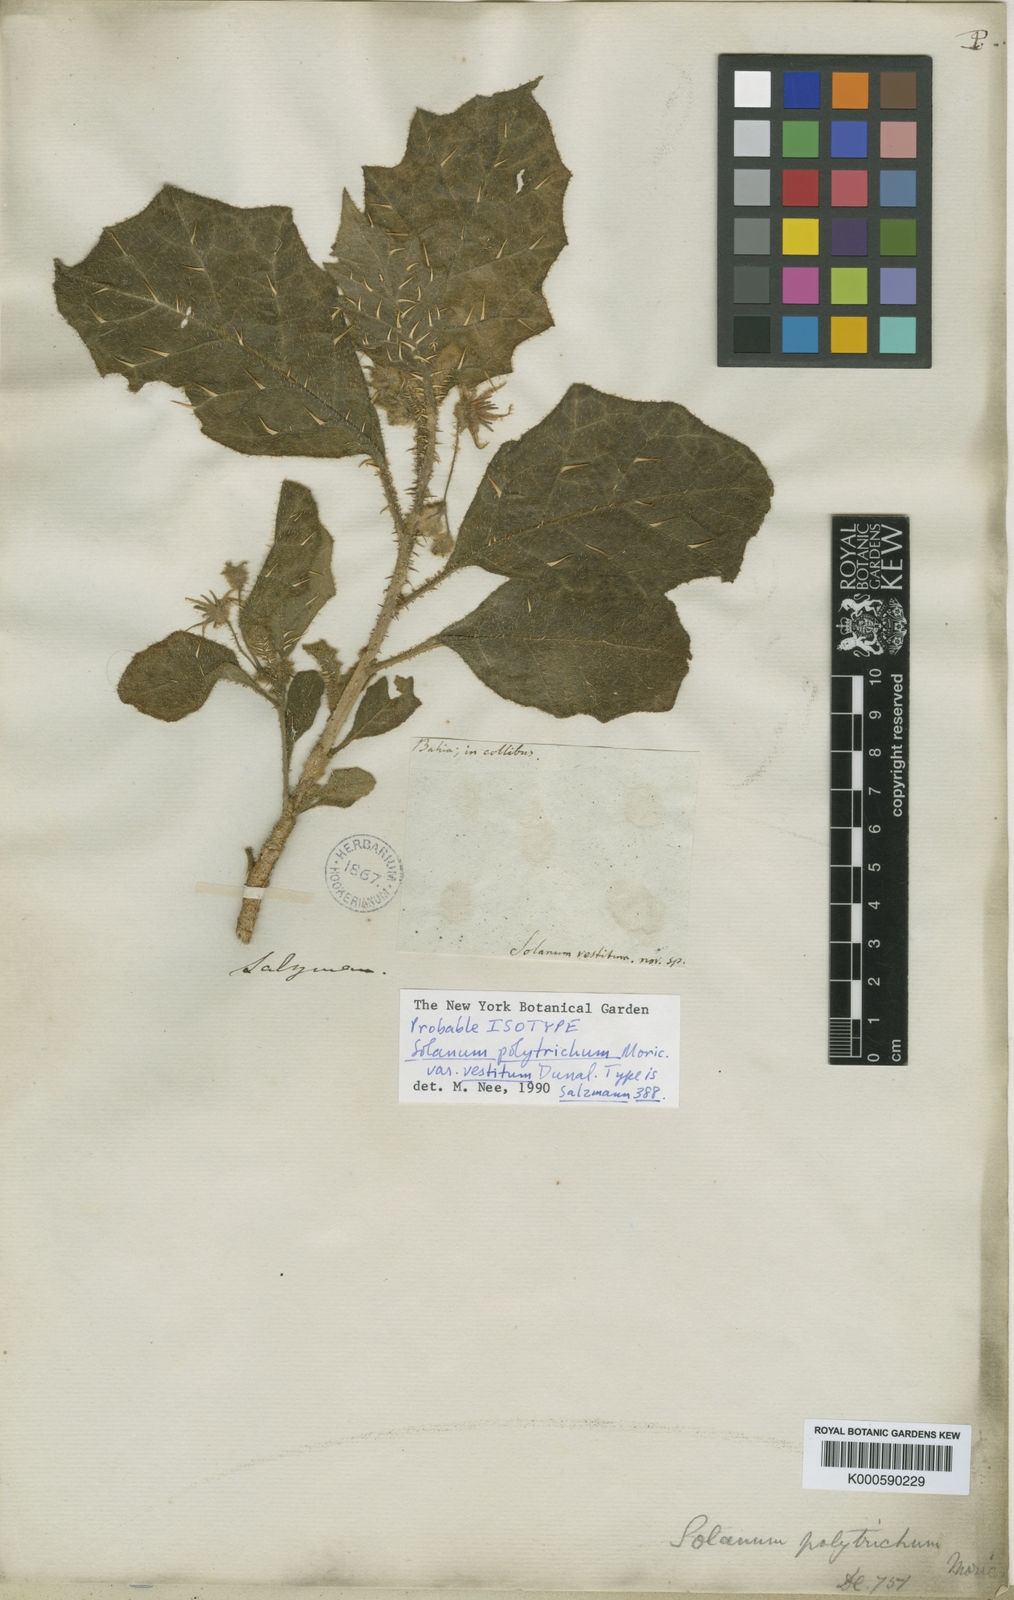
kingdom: Plantae
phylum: Tracheophyta
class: Magnoliopsida
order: Solanales
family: Solanaceae
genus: Solanum
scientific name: Solanum polytrichum
